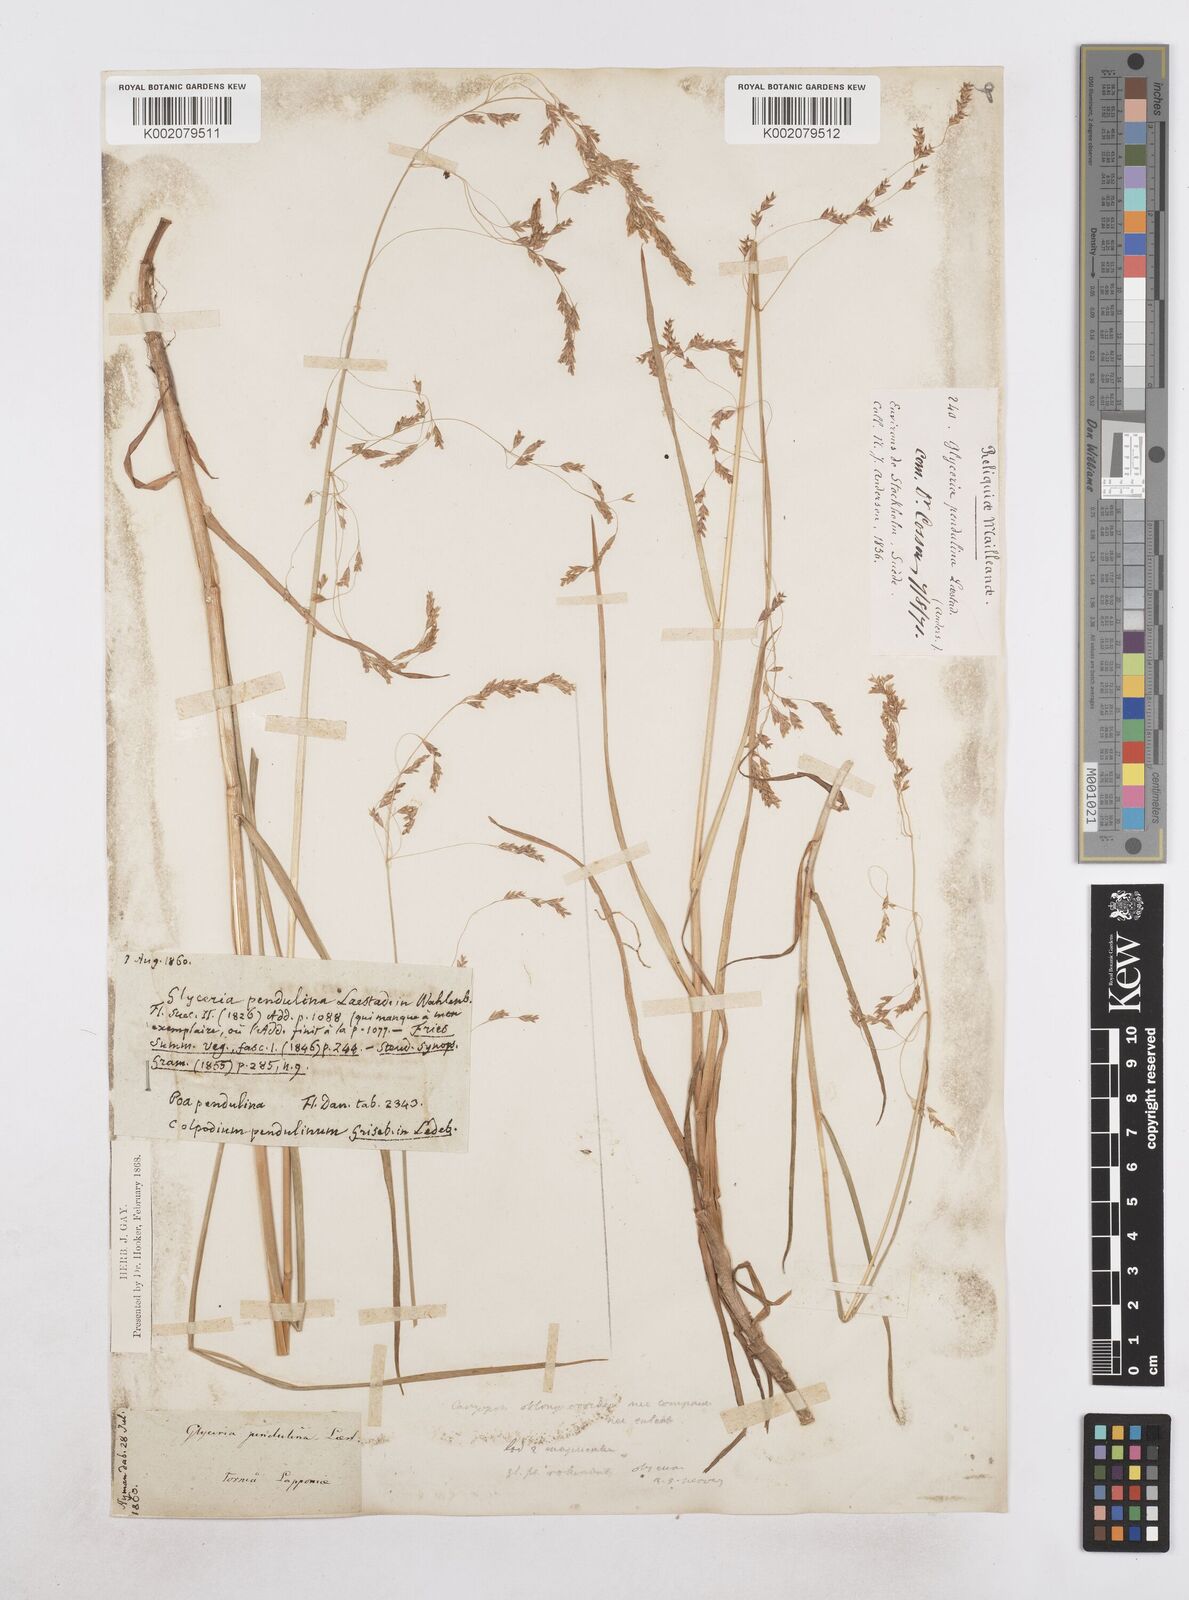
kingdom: Plantae
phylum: Tracheophyta
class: Liliopsida
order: Poales
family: Poaceae
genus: Dupontia
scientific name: Dupontia fulva
